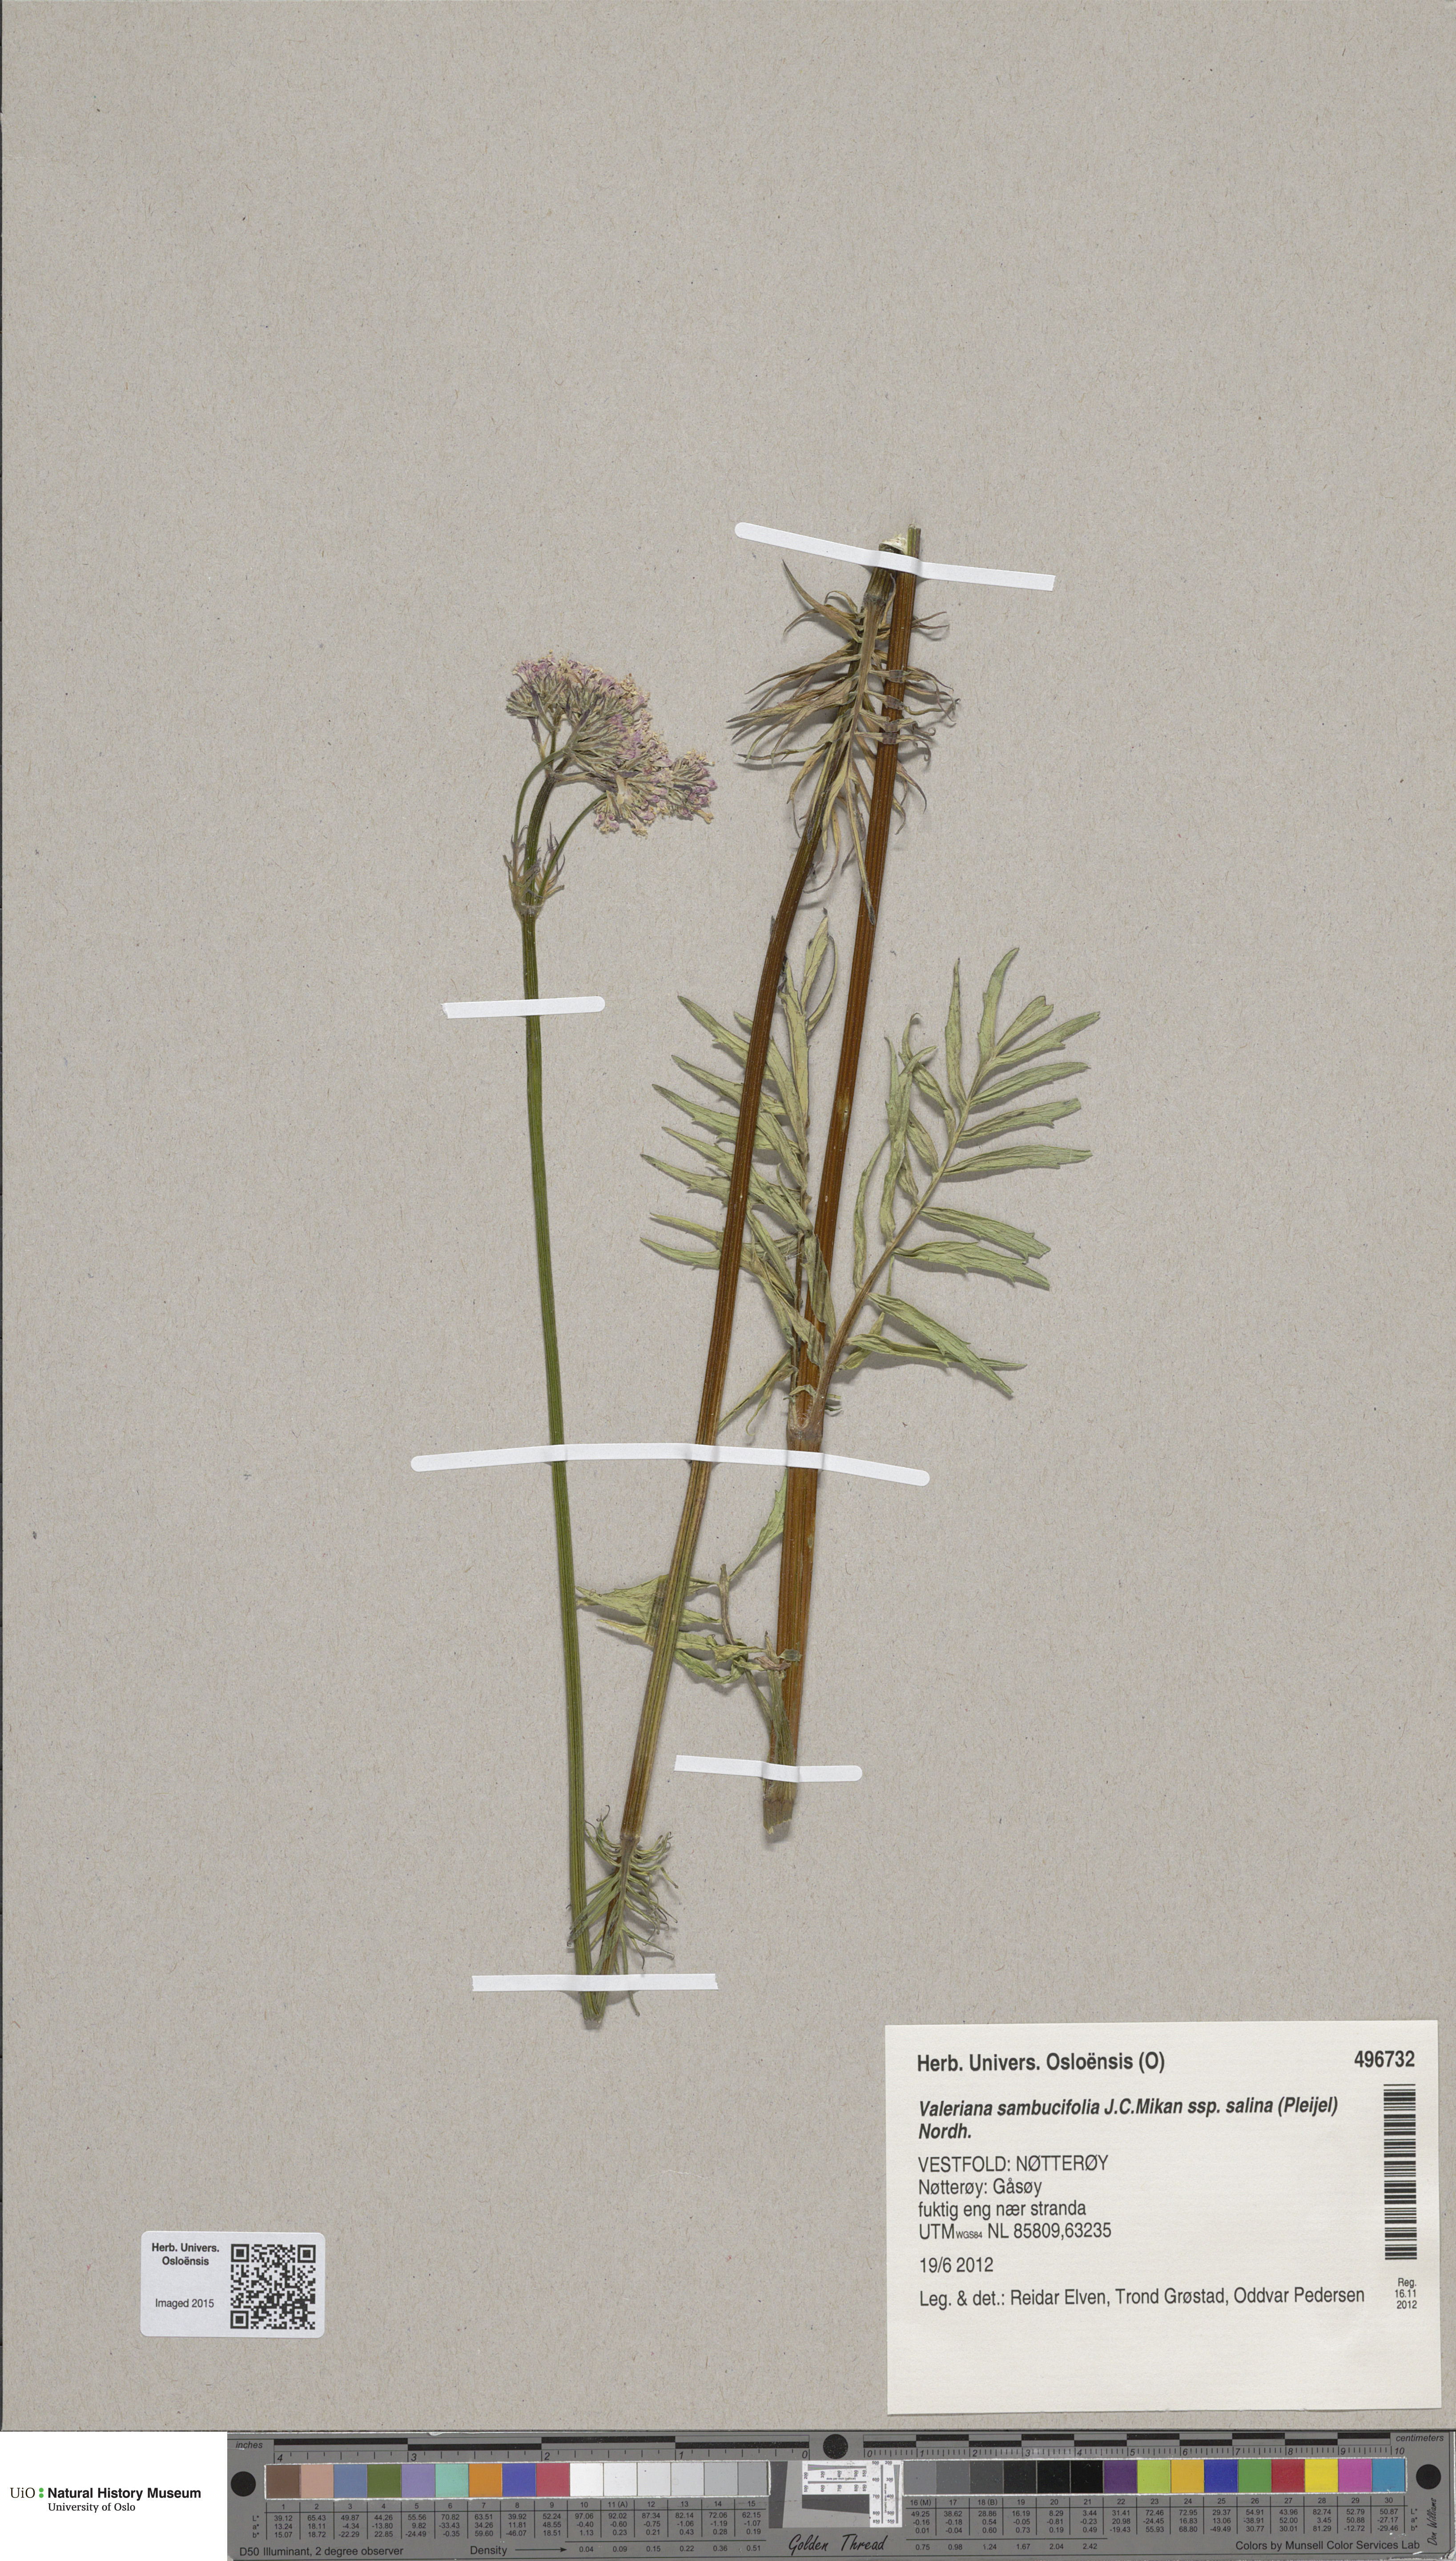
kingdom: Plantae
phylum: Tracheophyta
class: Magnoliopsida
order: Dipsacales
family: Caprifoliaceae
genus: Valeriana
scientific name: Valeriana sambucifolia
